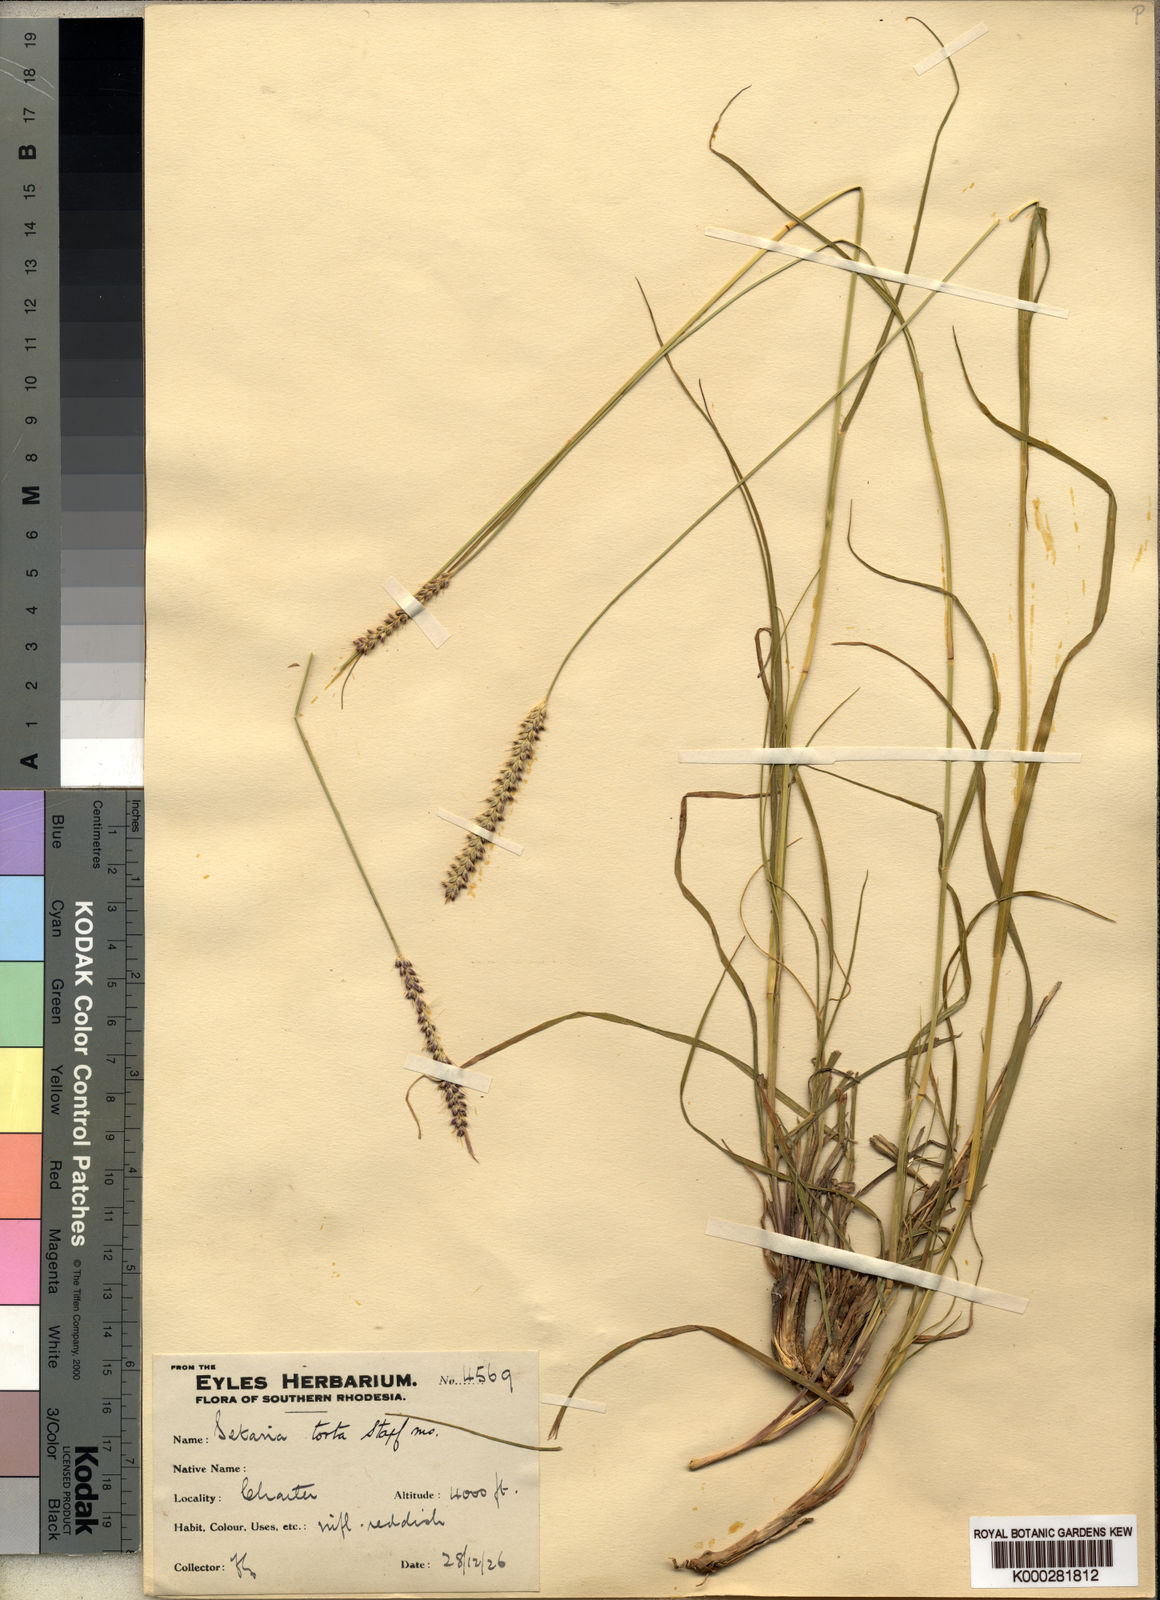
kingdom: Plantae
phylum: Tracheophyta
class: Liliopsida
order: Poales
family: Poaceae
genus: Setaria
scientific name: Setaria sphacelata
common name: African bristlegrass
